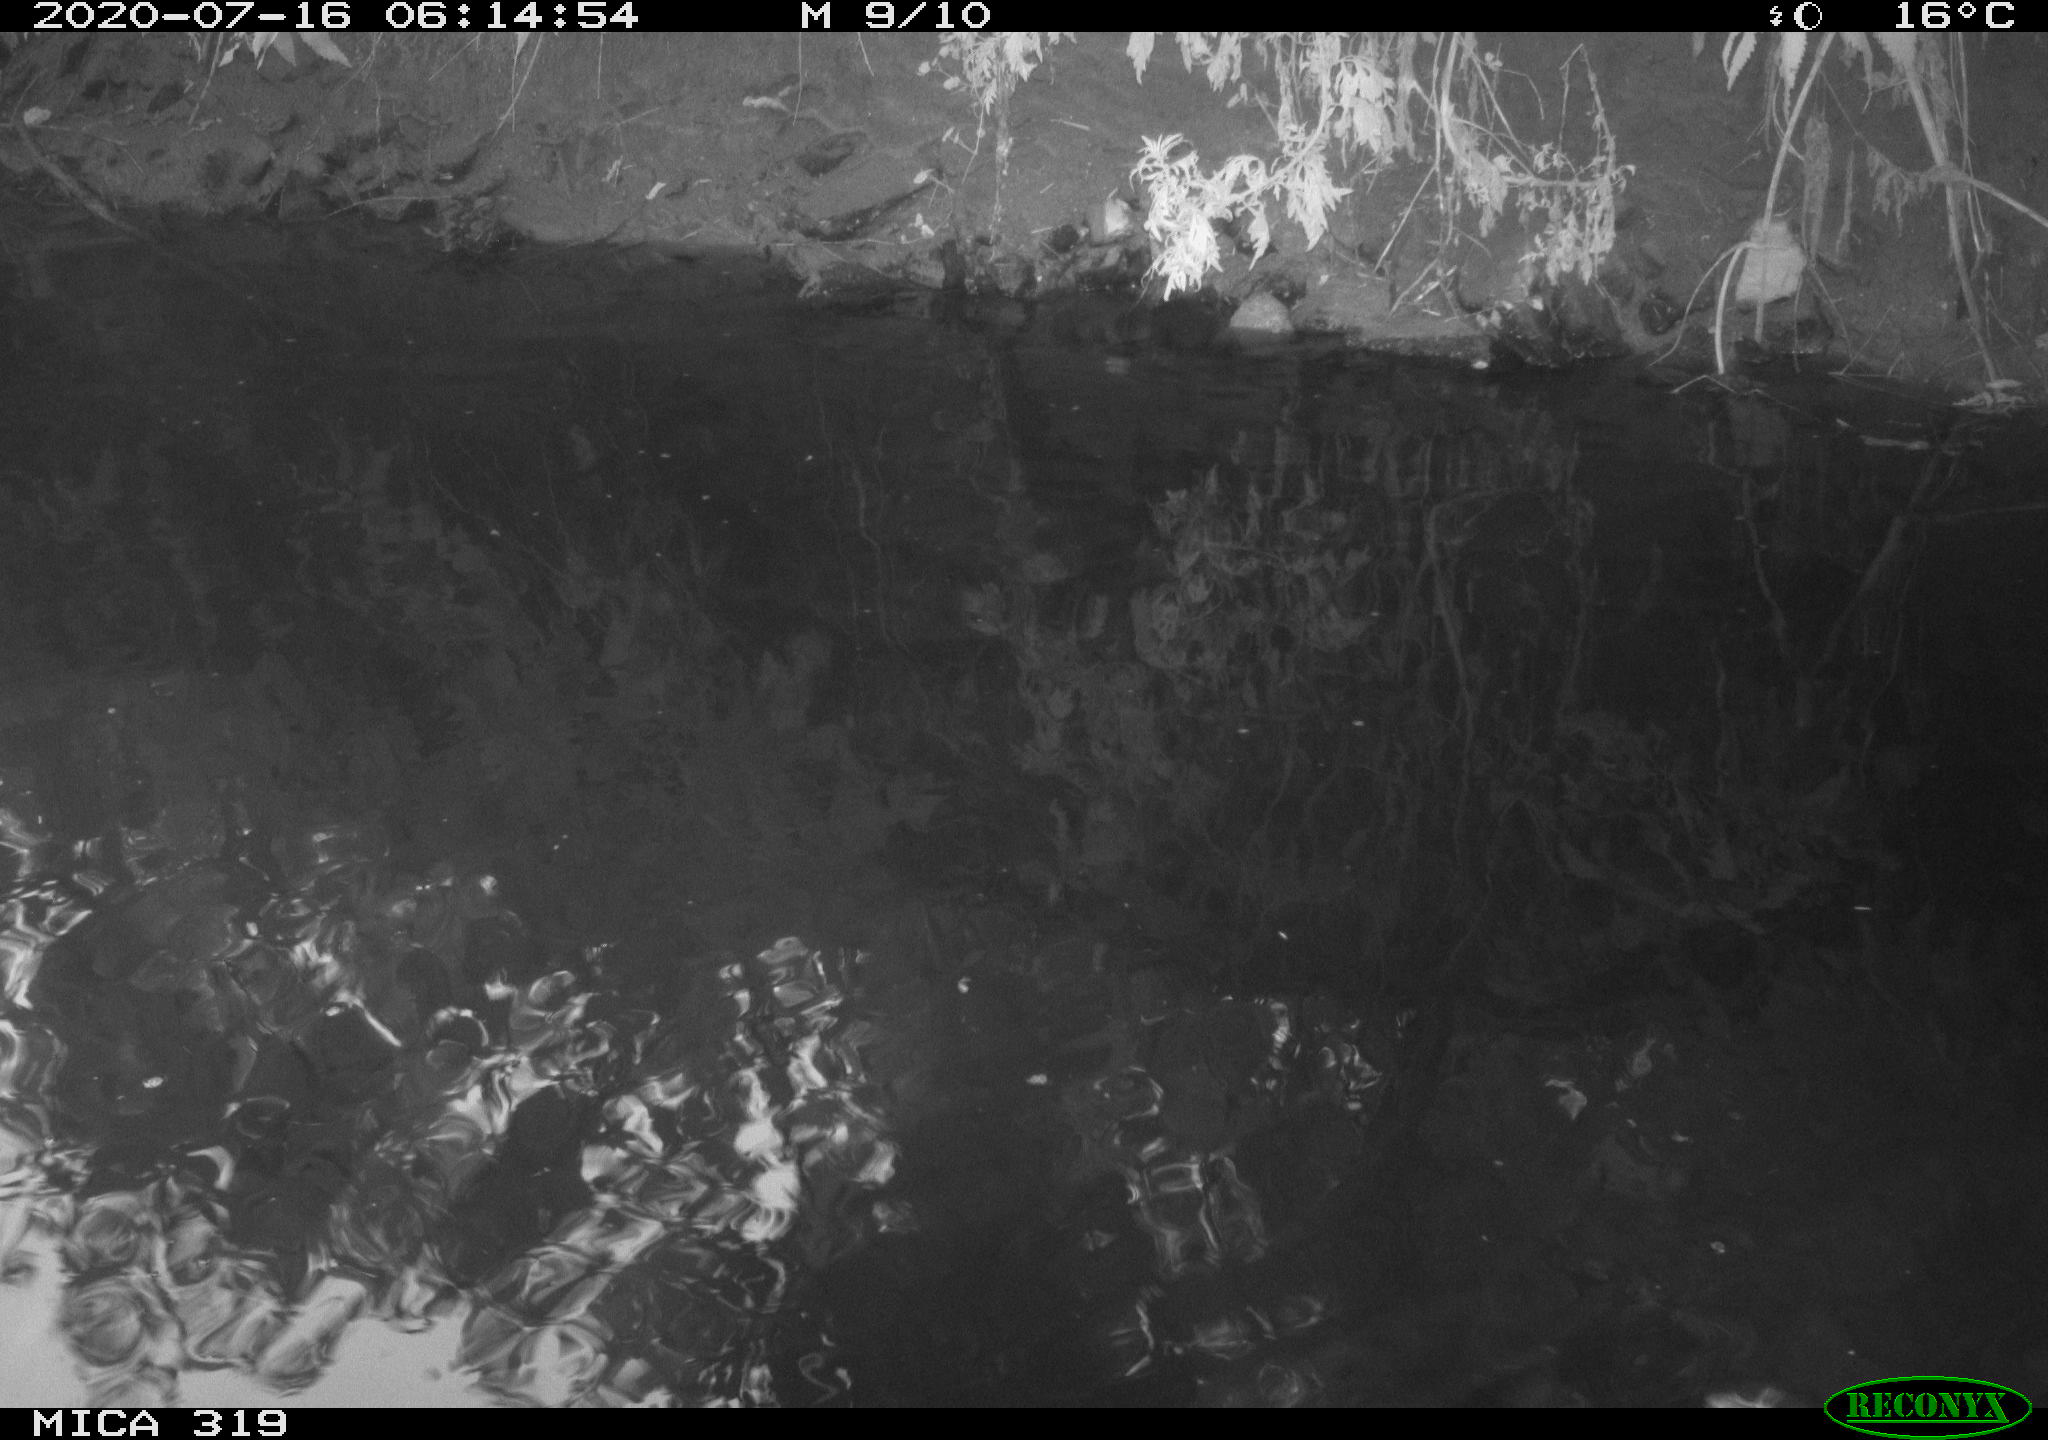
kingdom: Animalia
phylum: Chordata
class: Aves
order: Anseriformes
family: Anatidae
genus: Anas
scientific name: Anas platyrhynchos
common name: Mallard
